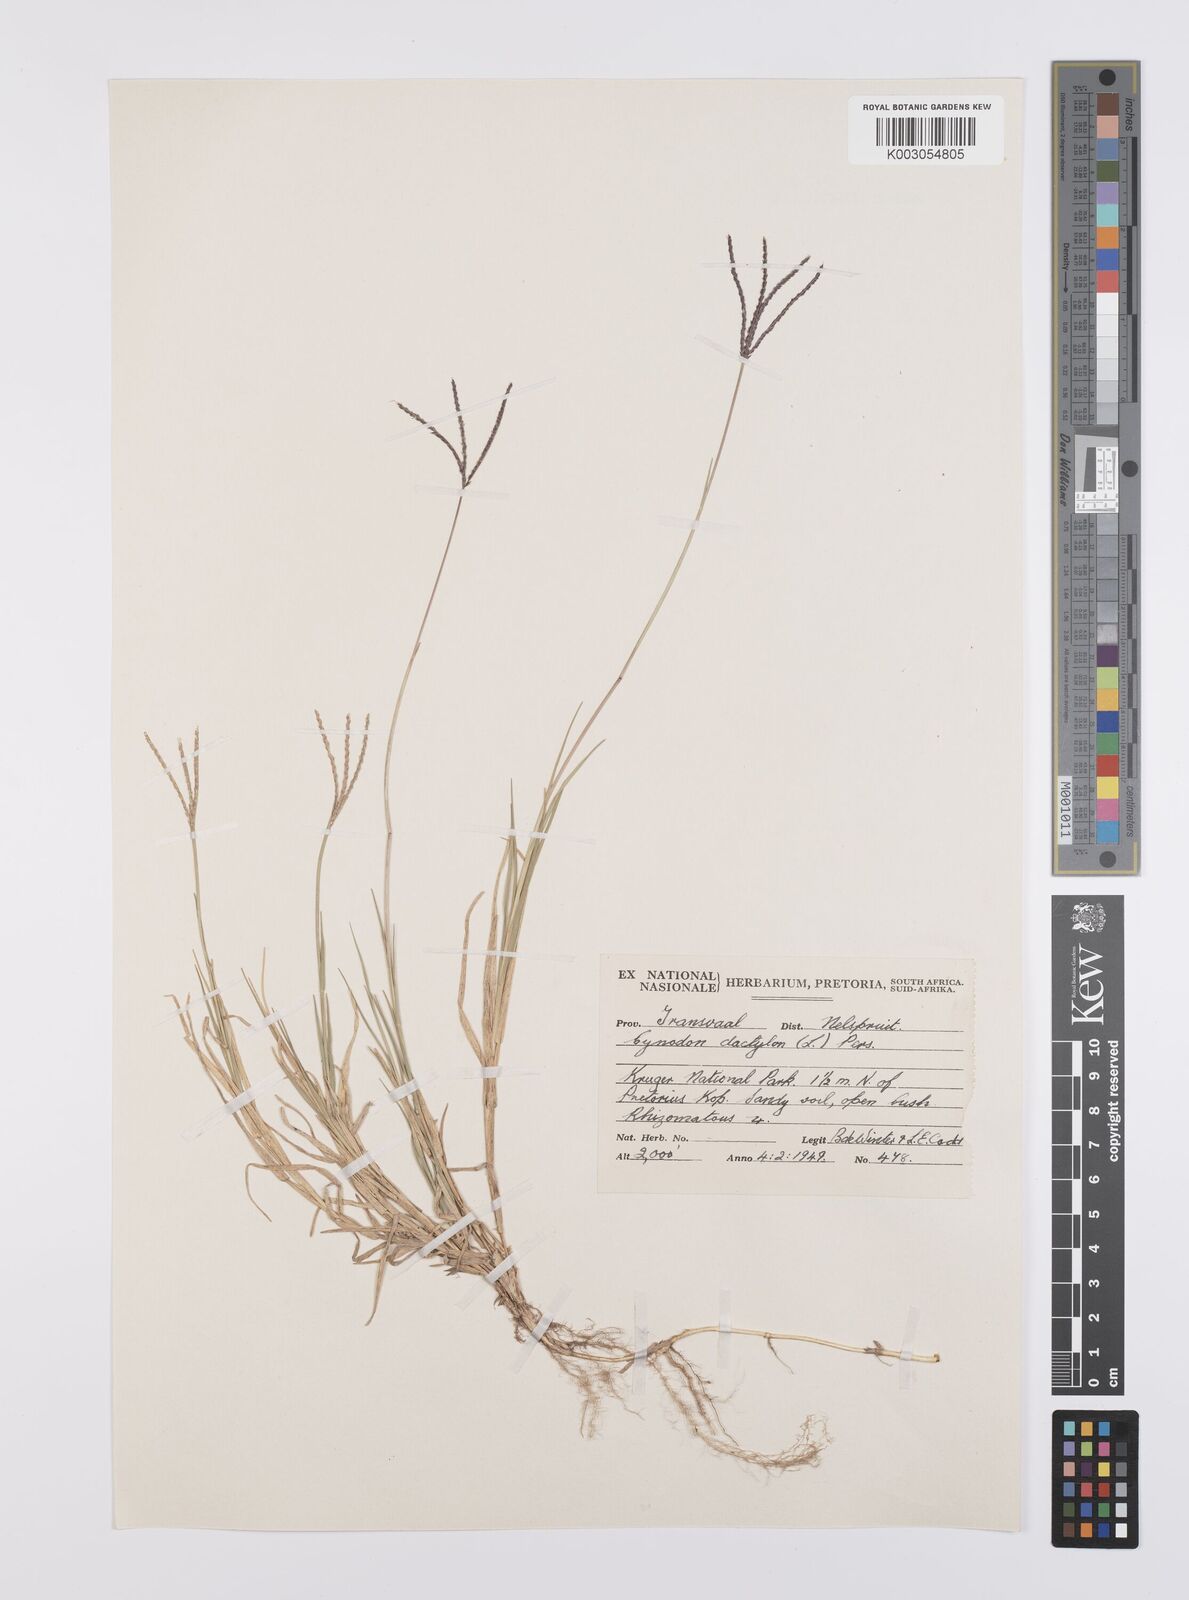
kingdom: Plantae
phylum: Tracheophyta
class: Liliopsida
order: Poales
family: Poaceae
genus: Cynodon
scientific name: Cynodon dactylon
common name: Bermuda grass
